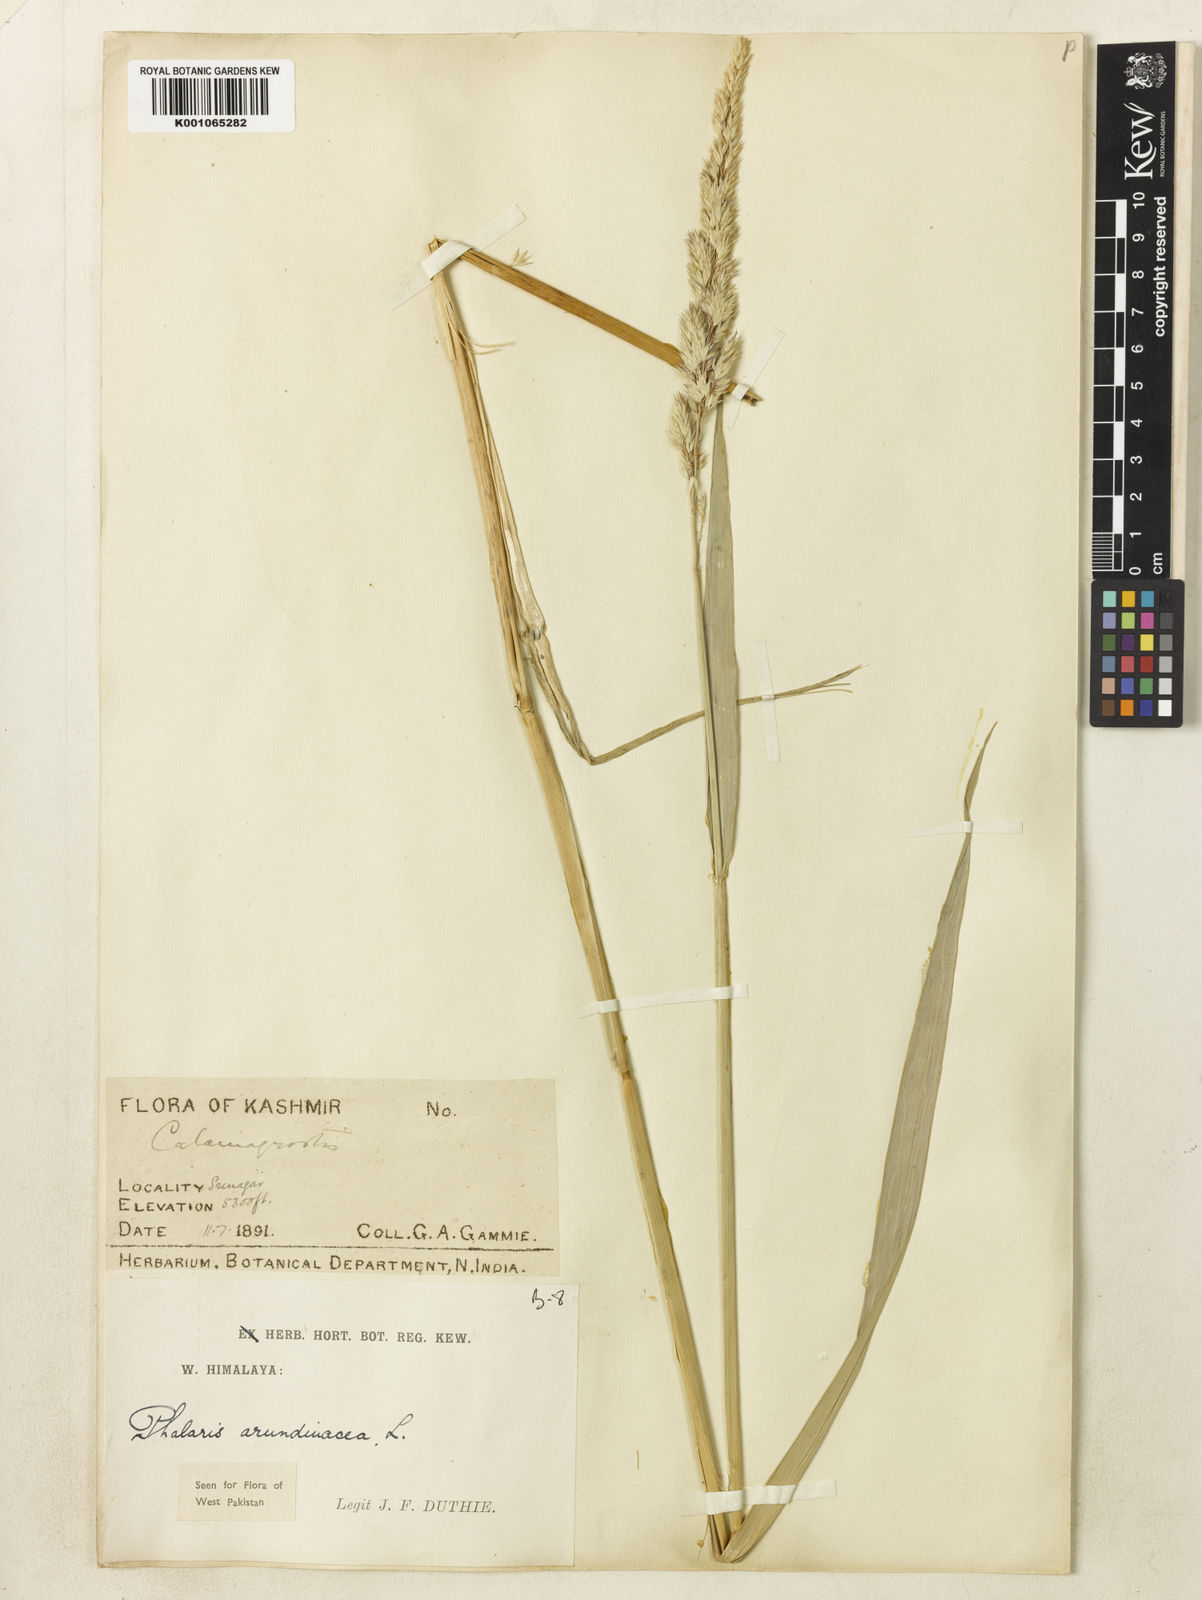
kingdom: Plantae
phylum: Tracheophyta
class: Liliopsida
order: Poales
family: Poaceae
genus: Phalaris
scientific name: Phalaris arundinacea
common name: Reed canary-grass
